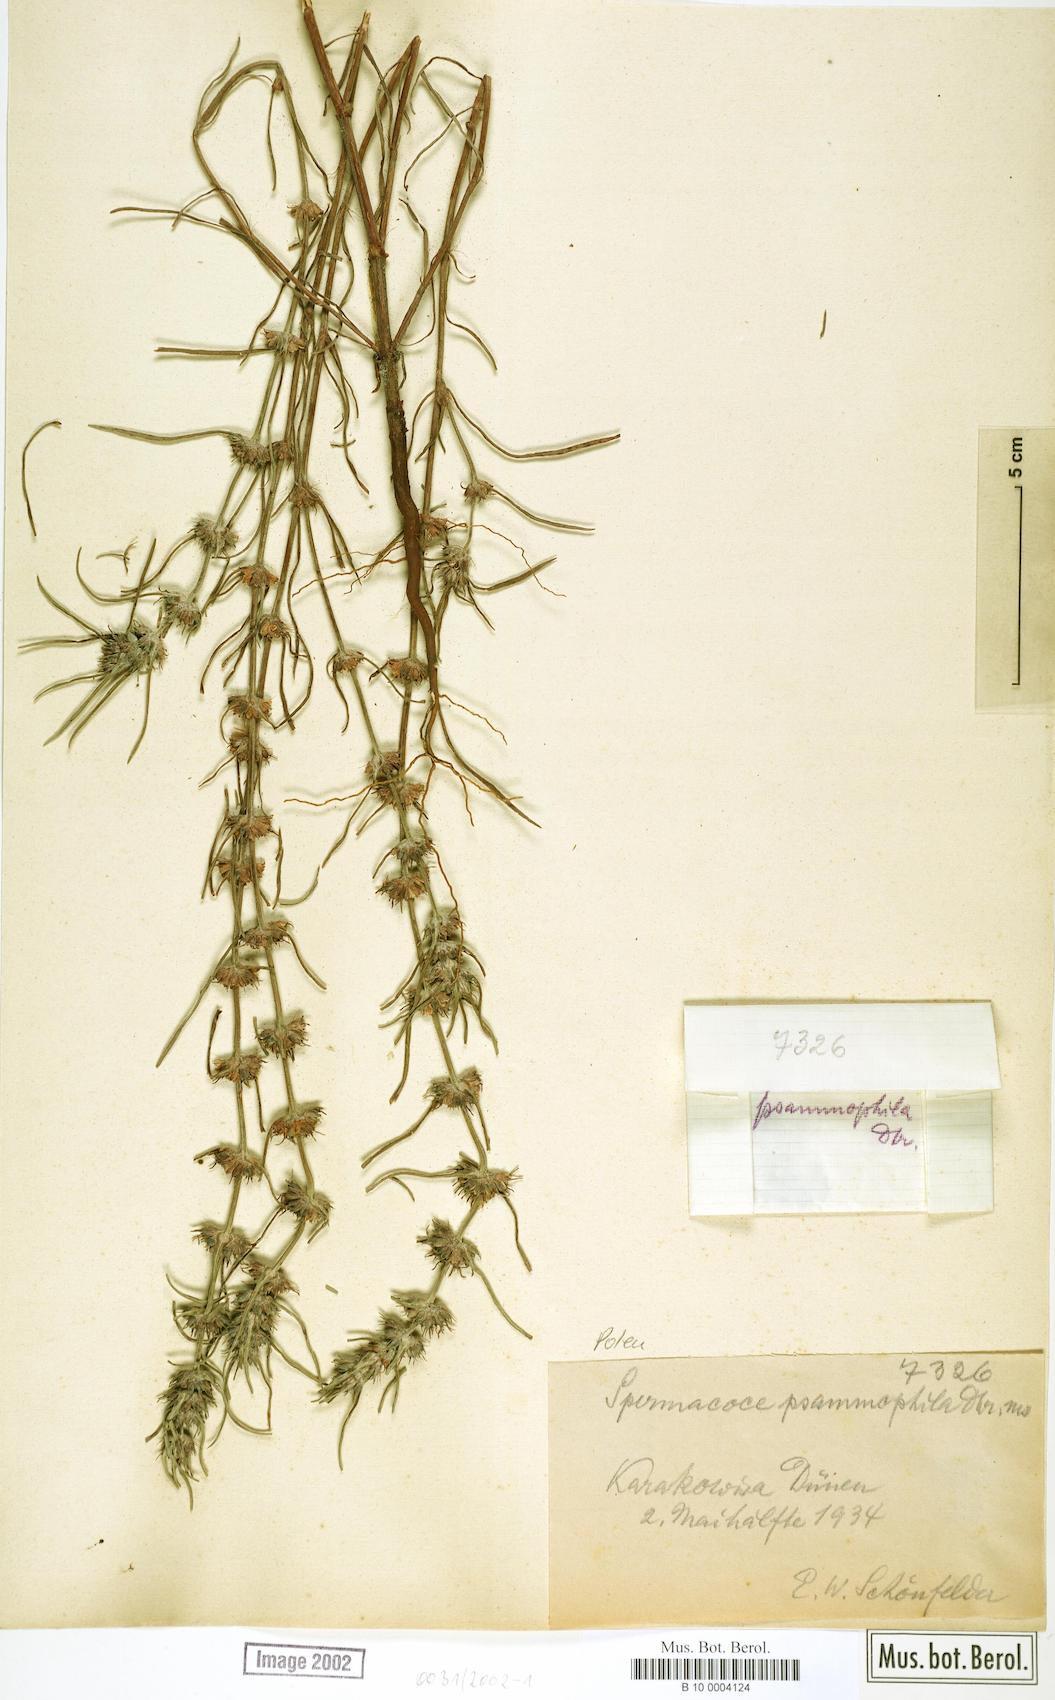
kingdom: Plantae
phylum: Tracheophyta
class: Magnoliopsida
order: Gentianales
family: Rubiaceae
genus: Spermacoce
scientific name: Spermacoce subvulgata
